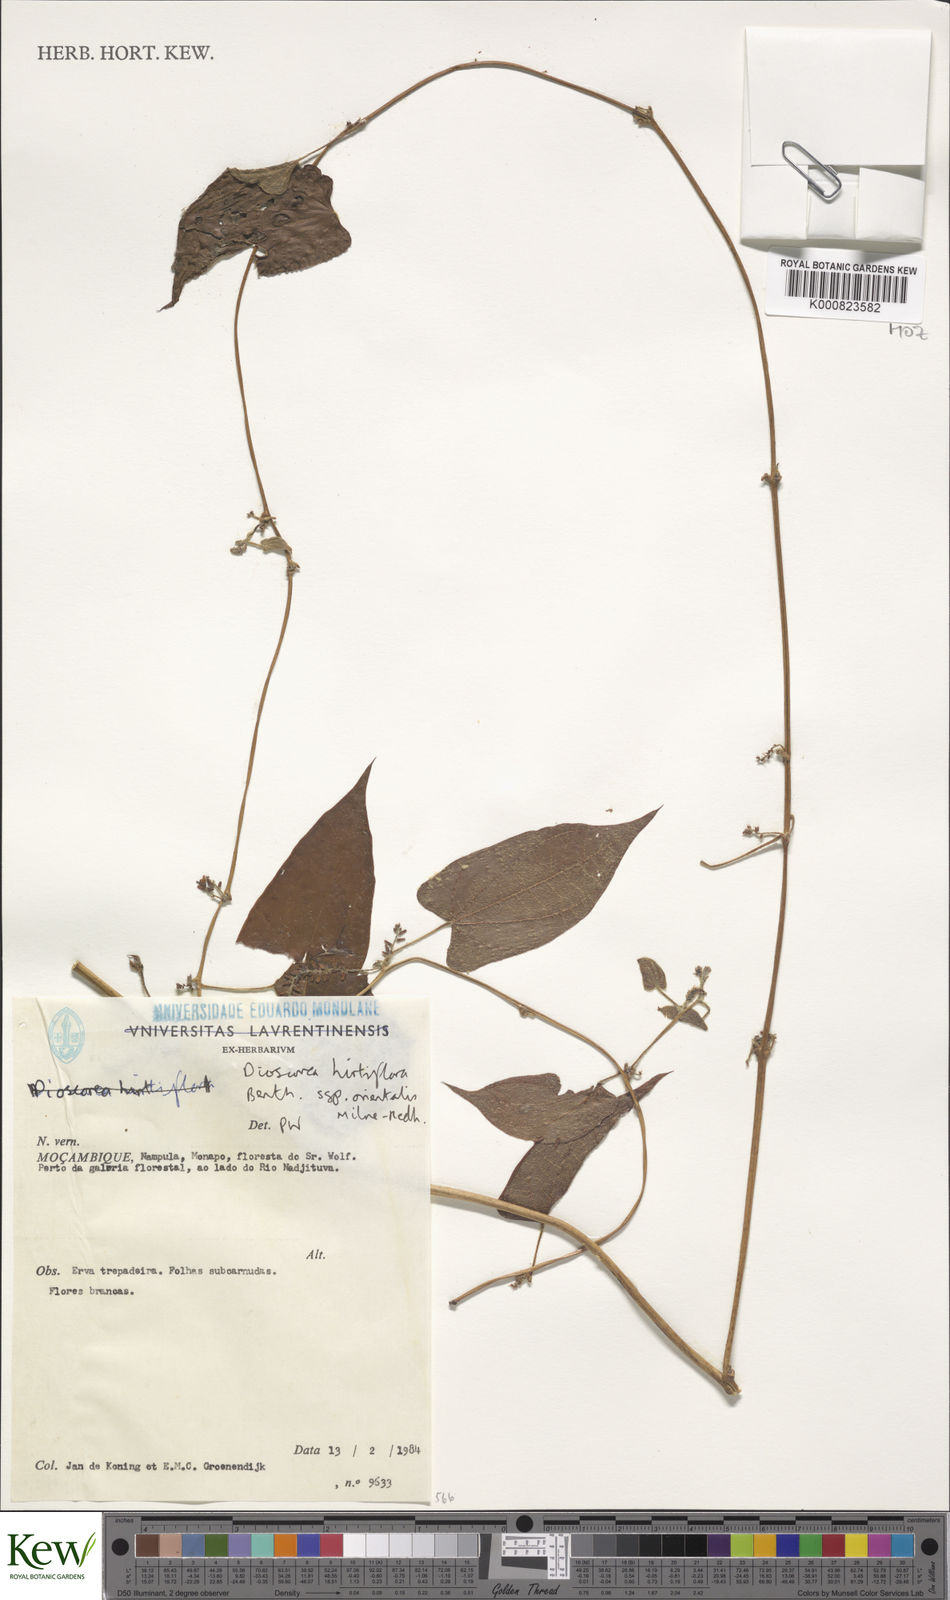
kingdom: Plantae
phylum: Tracheophyta
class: Liliopsida
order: Dioscoreales
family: Dioscoreaceae
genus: Dioscorea
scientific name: Dioscorea hirtiflora
